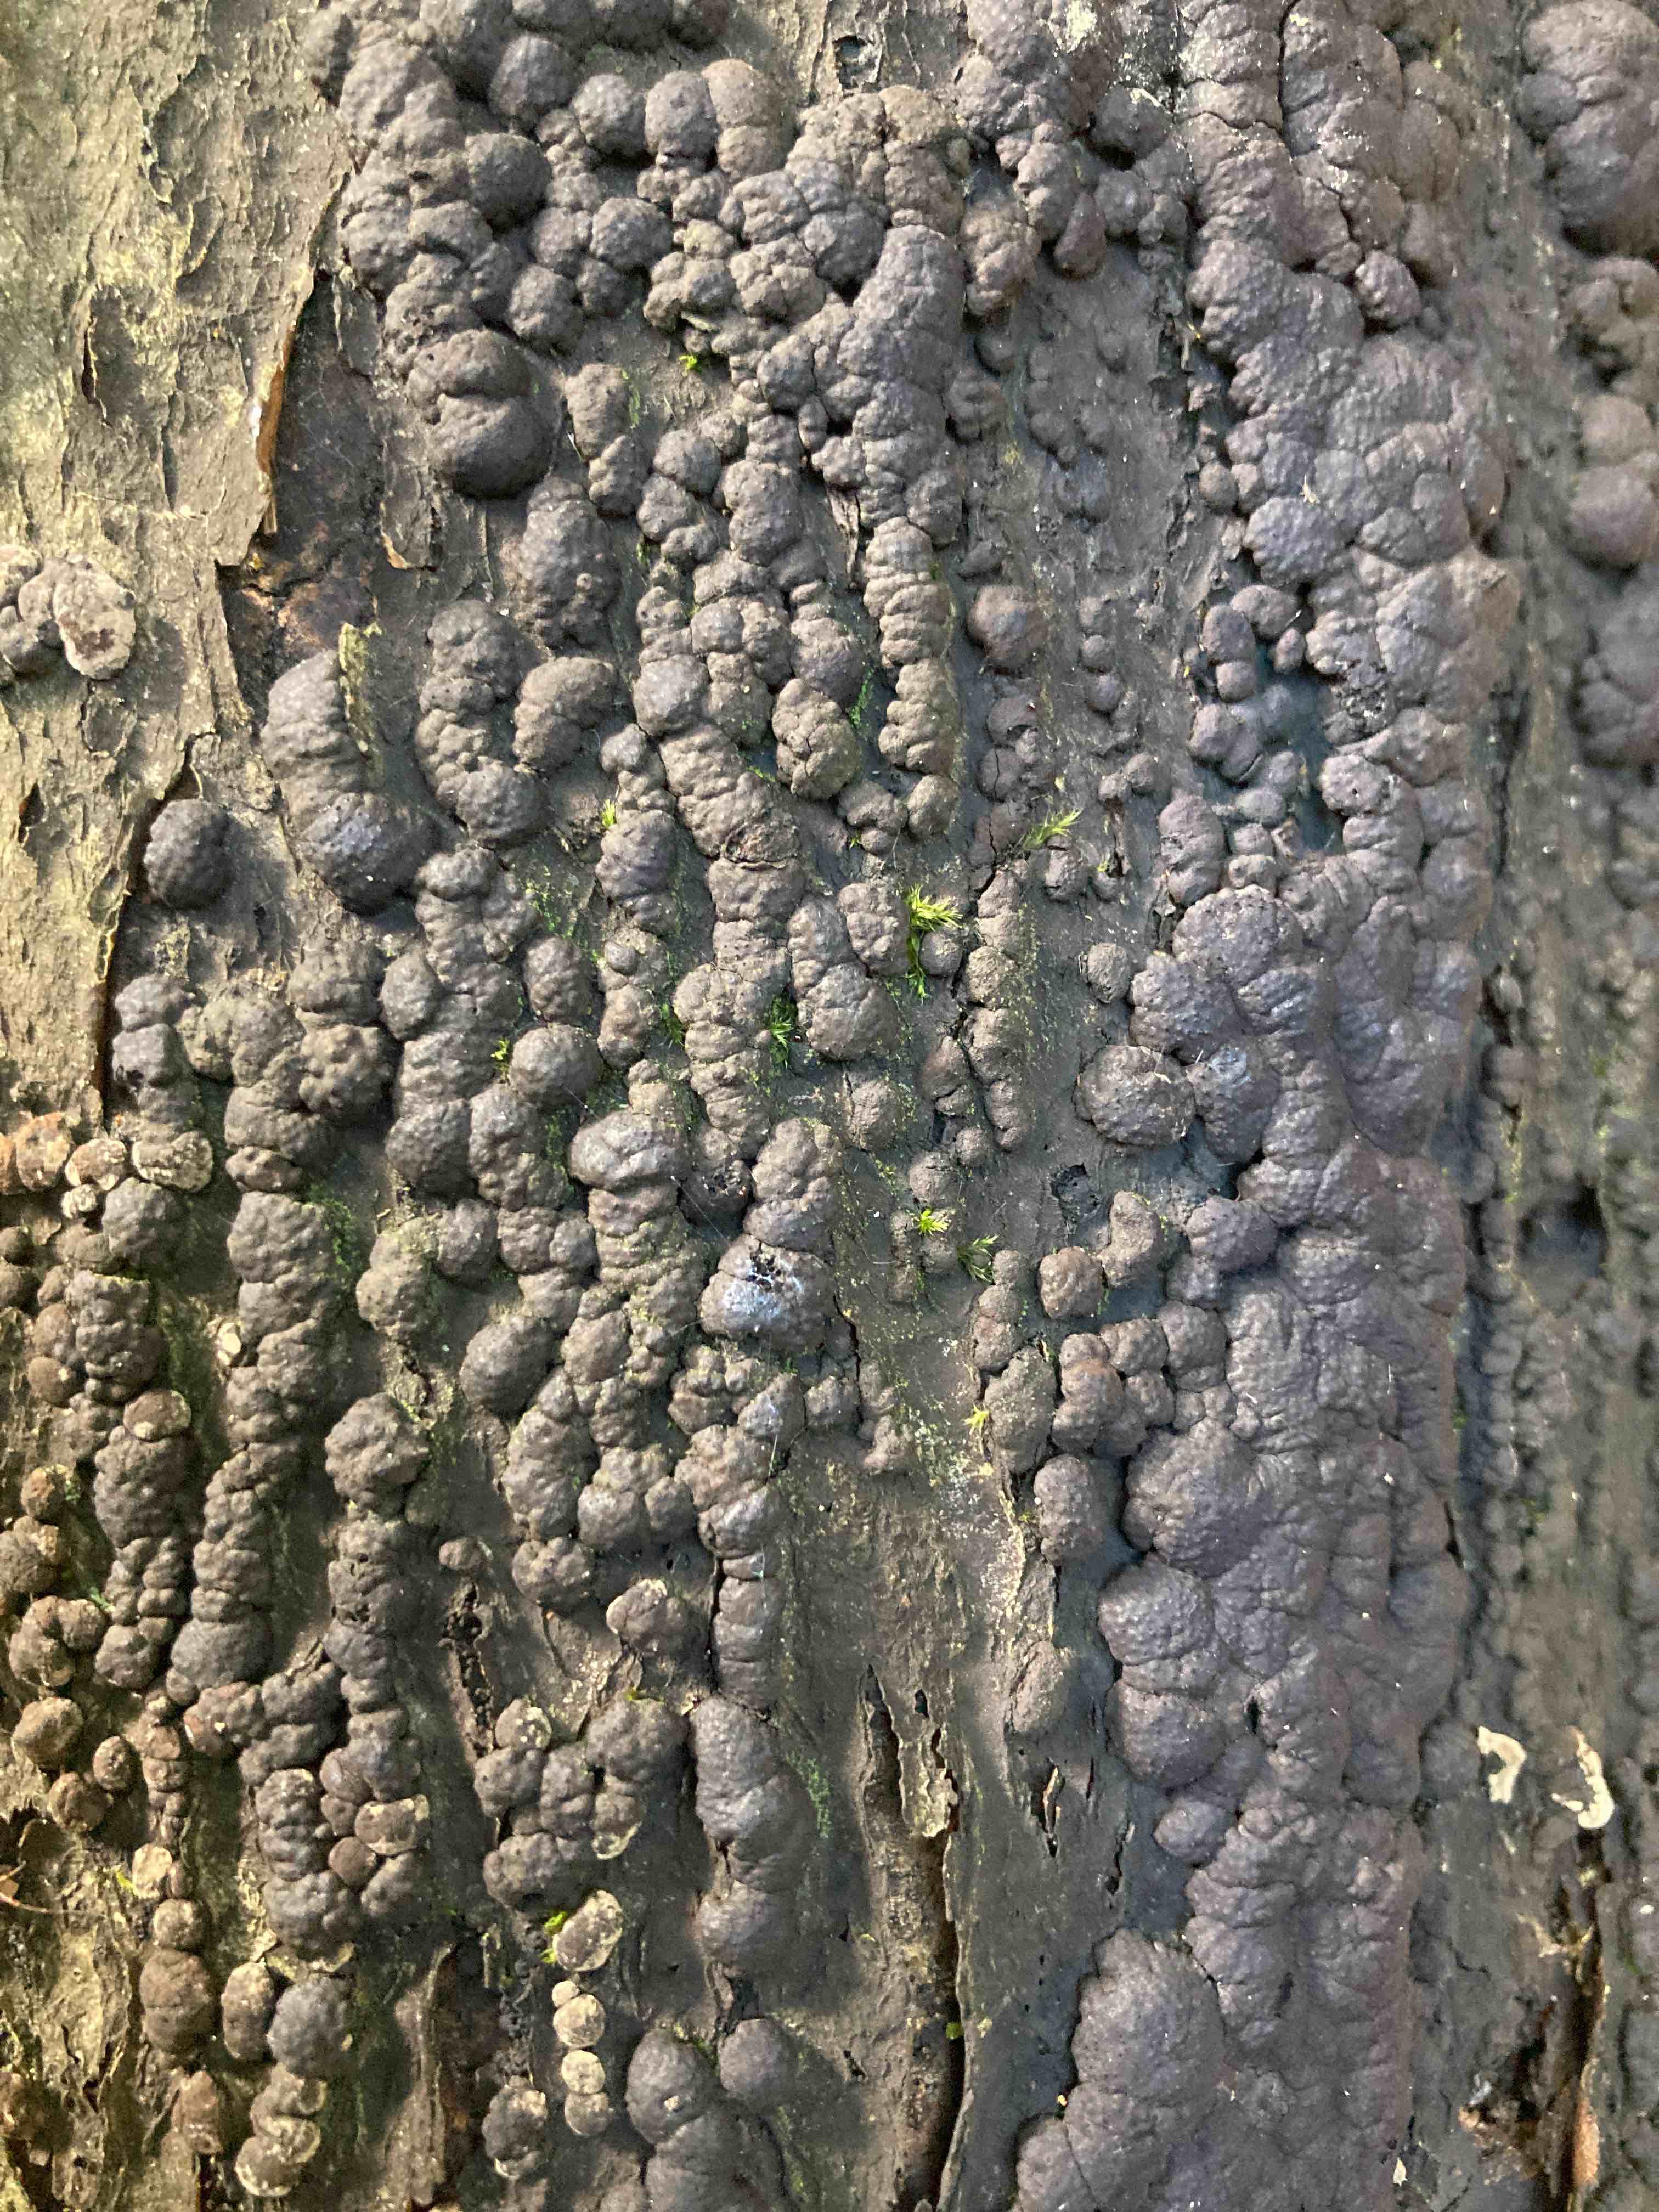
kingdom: Fungi
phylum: Ascomycota
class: Sordariomycetes
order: Xylariales
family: Hypoxylaceae
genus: Jackrogersella
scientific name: Jackrogersella cohaerens
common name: sammenflydende kulbær
